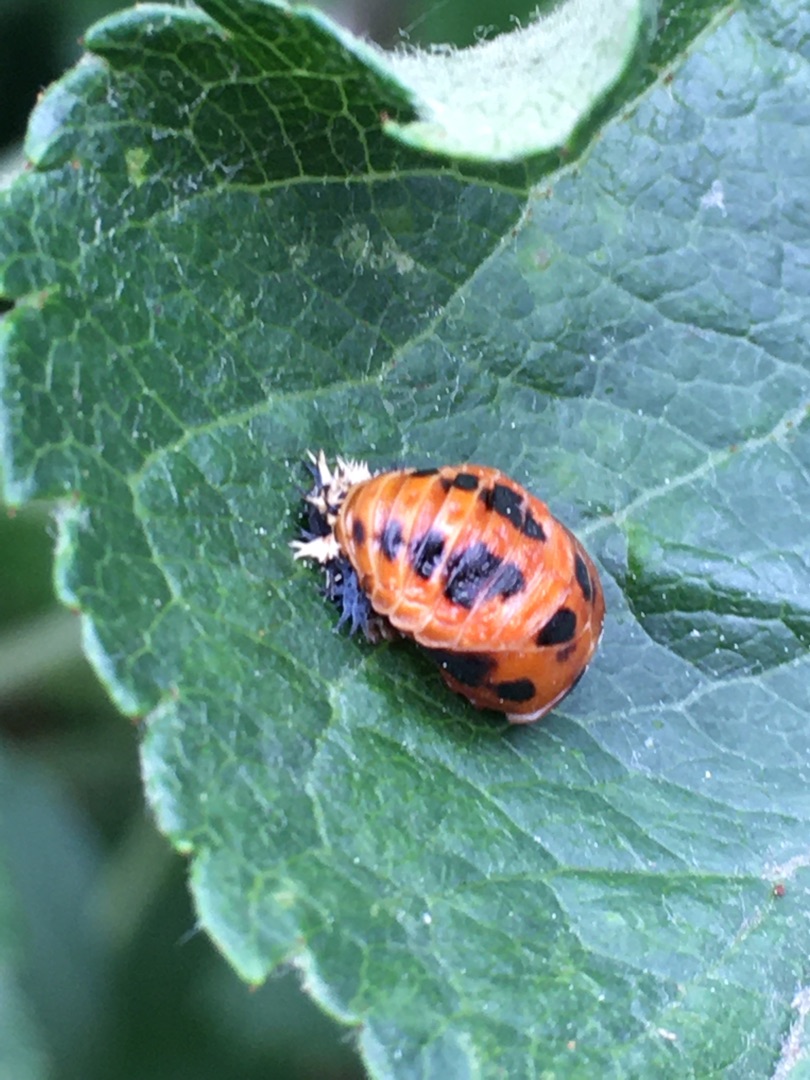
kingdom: Animalia
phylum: Arthropoda
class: Insecta
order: Coleoptera
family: Coccinellidae
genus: Harmonia
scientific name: Harmonia axyridis
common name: Harlekinmariehøne
